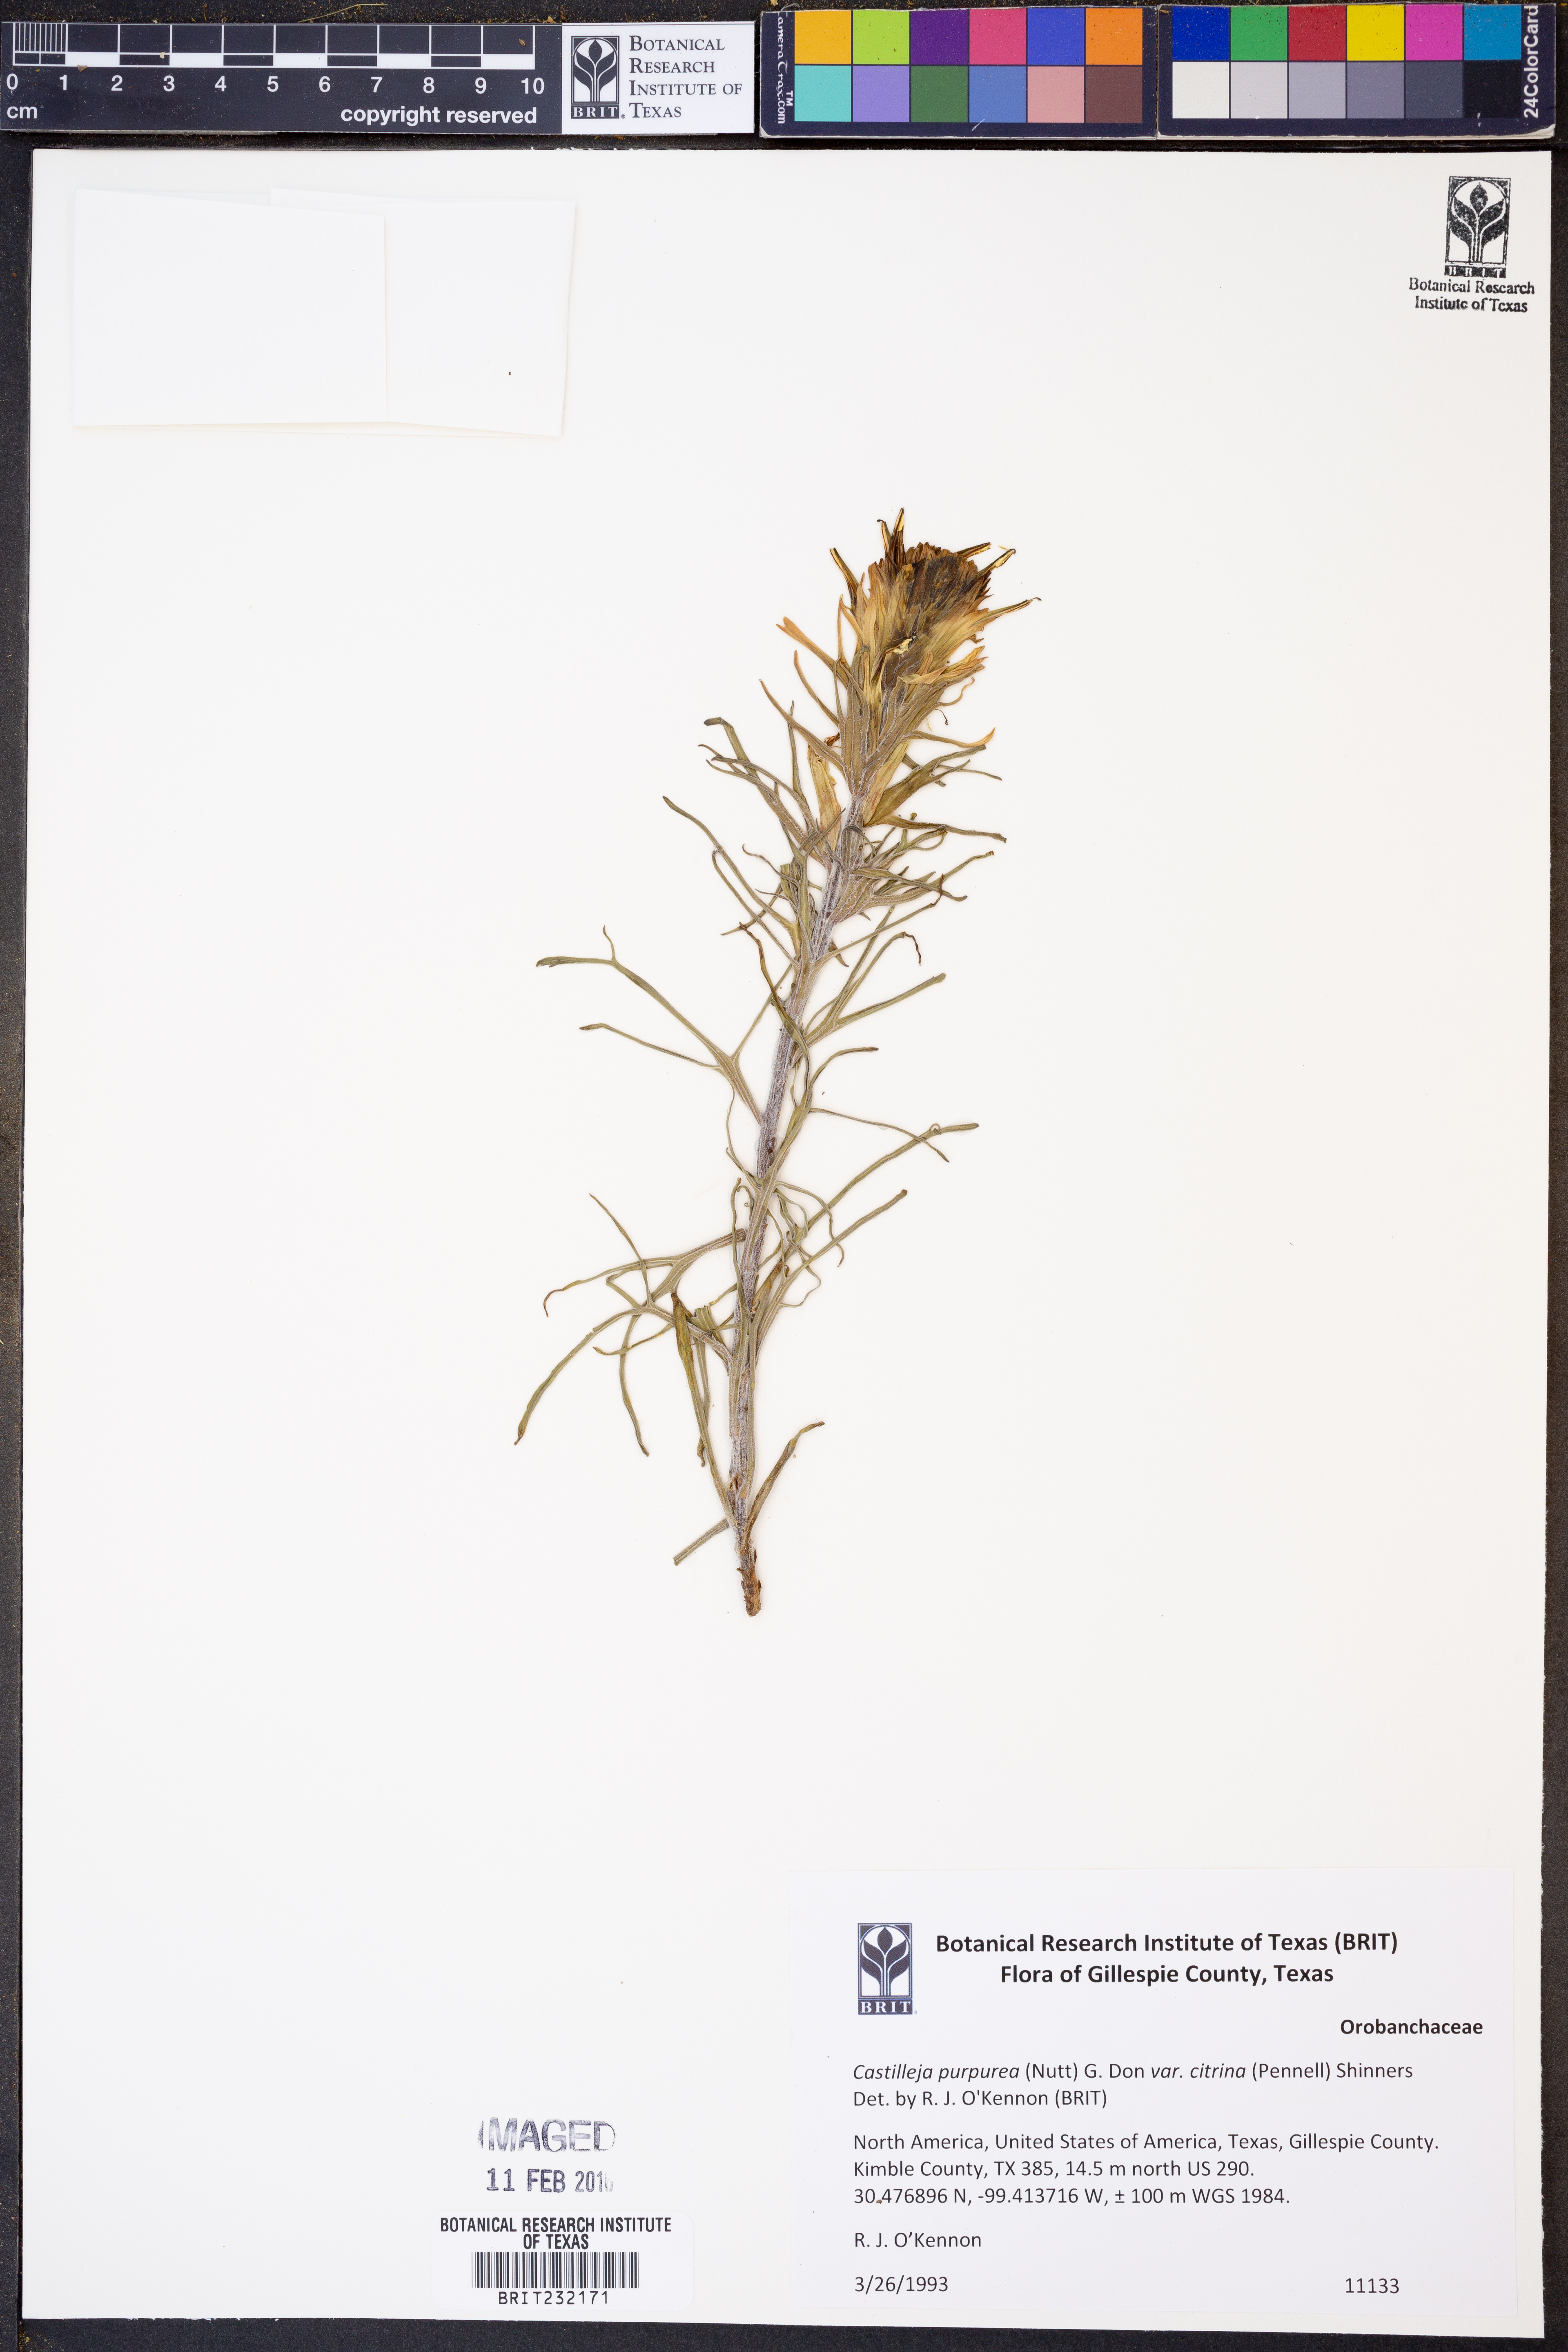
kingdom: Plantae
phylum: Tracheophyta
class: Magnoliopsida
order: Lamiales
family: Orobanchaceae
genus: Castilleja
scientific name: Castilleja purpurea
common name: Plains paintbrush
